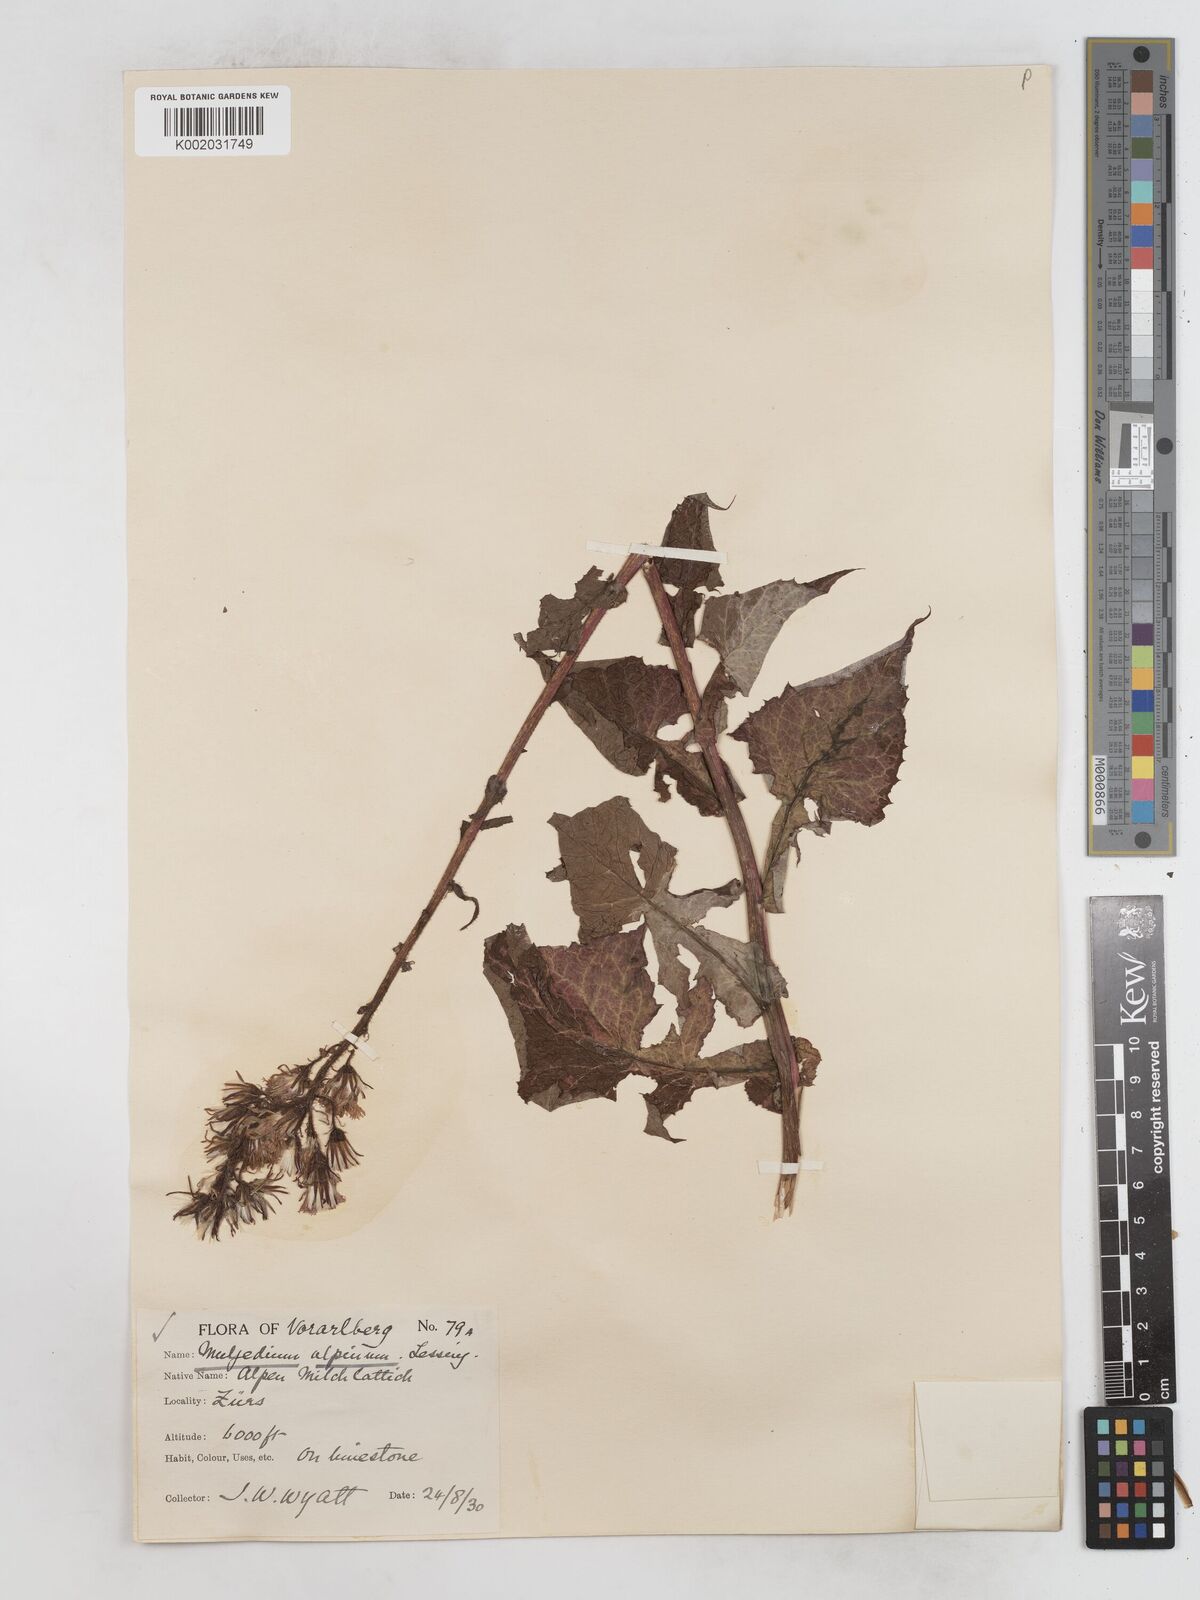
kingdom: Plantae
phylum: Tracheophyta
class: Magnoliopsida
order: Asterales
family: Asteraceae
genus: Cicerbita
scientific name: Cicerbita alpina
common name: Alpine blue-sow-thistle
